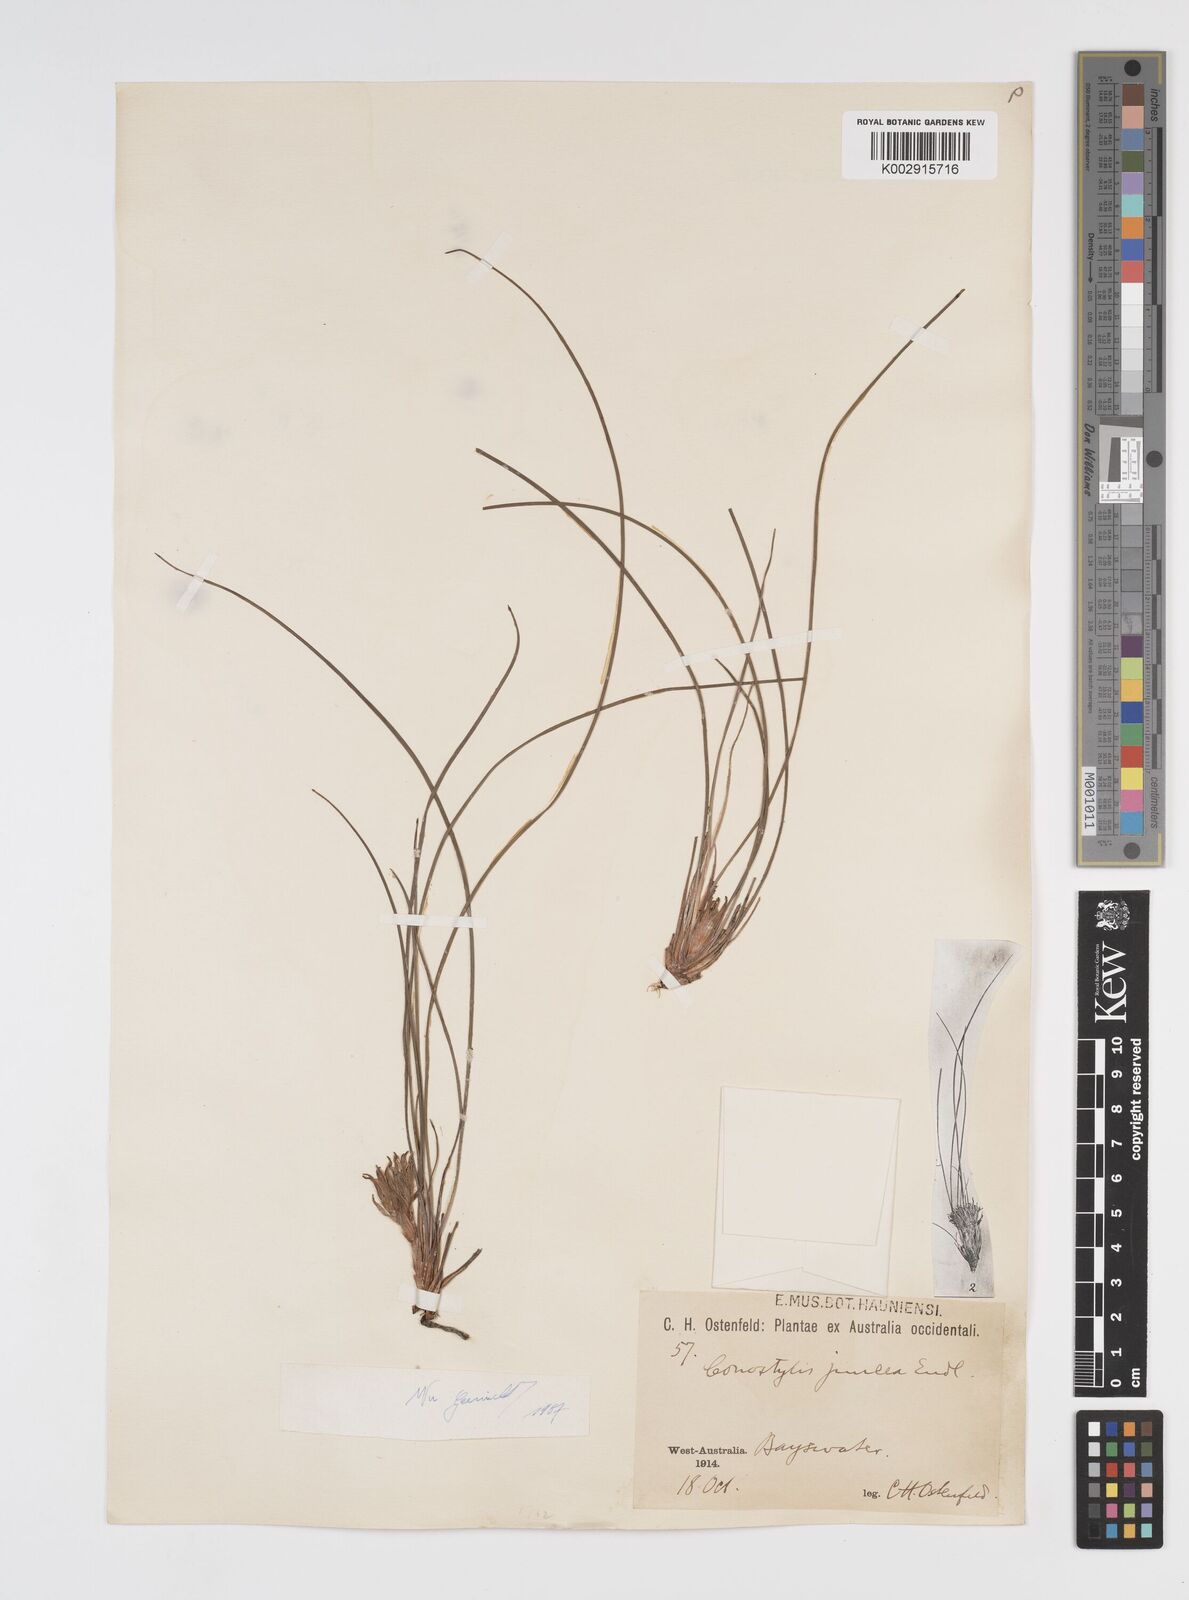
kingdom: Plantae
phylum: Tracheophyta
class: Liliopsida
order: Commelinales
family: Haemodoraceae
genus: Conostylis
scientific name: Conostylis juncea
